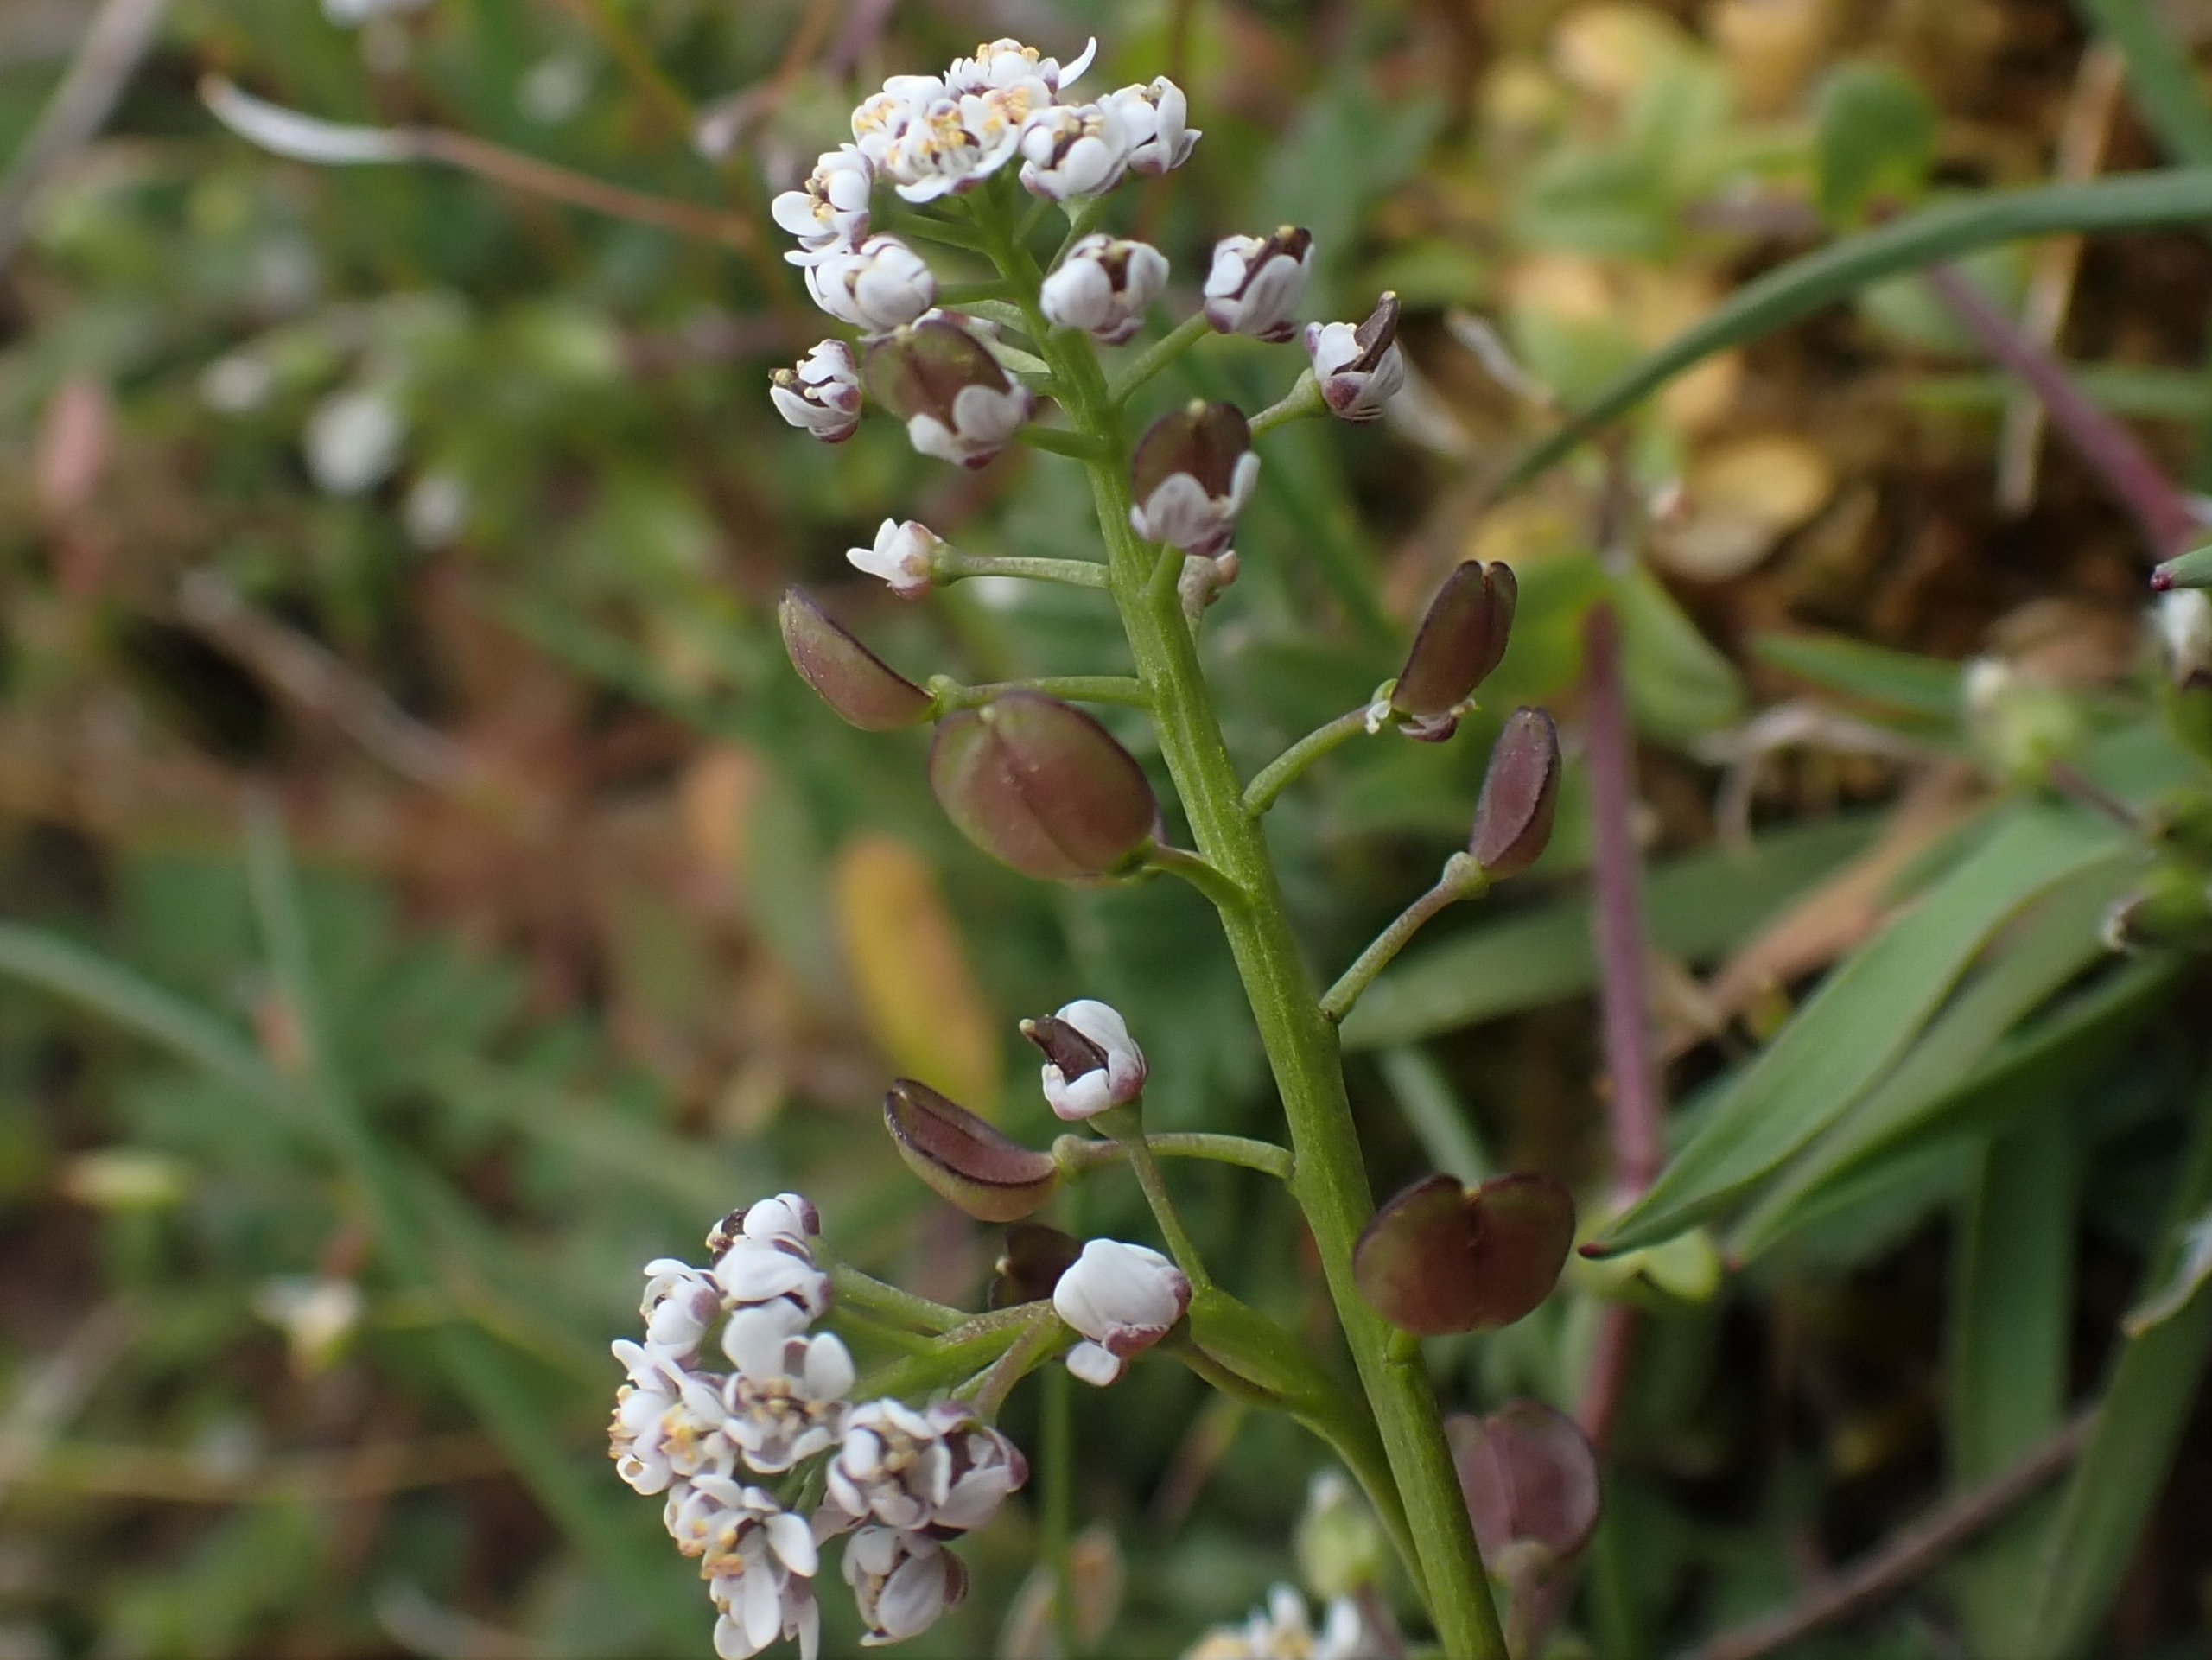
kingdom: Plantae
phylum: Tracheophyta
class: Magnoliopsida
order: Brassicales
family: Brassicaceae
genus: Teesdalia
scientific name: Teesdalia nudicaulis
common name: Flipkrave
